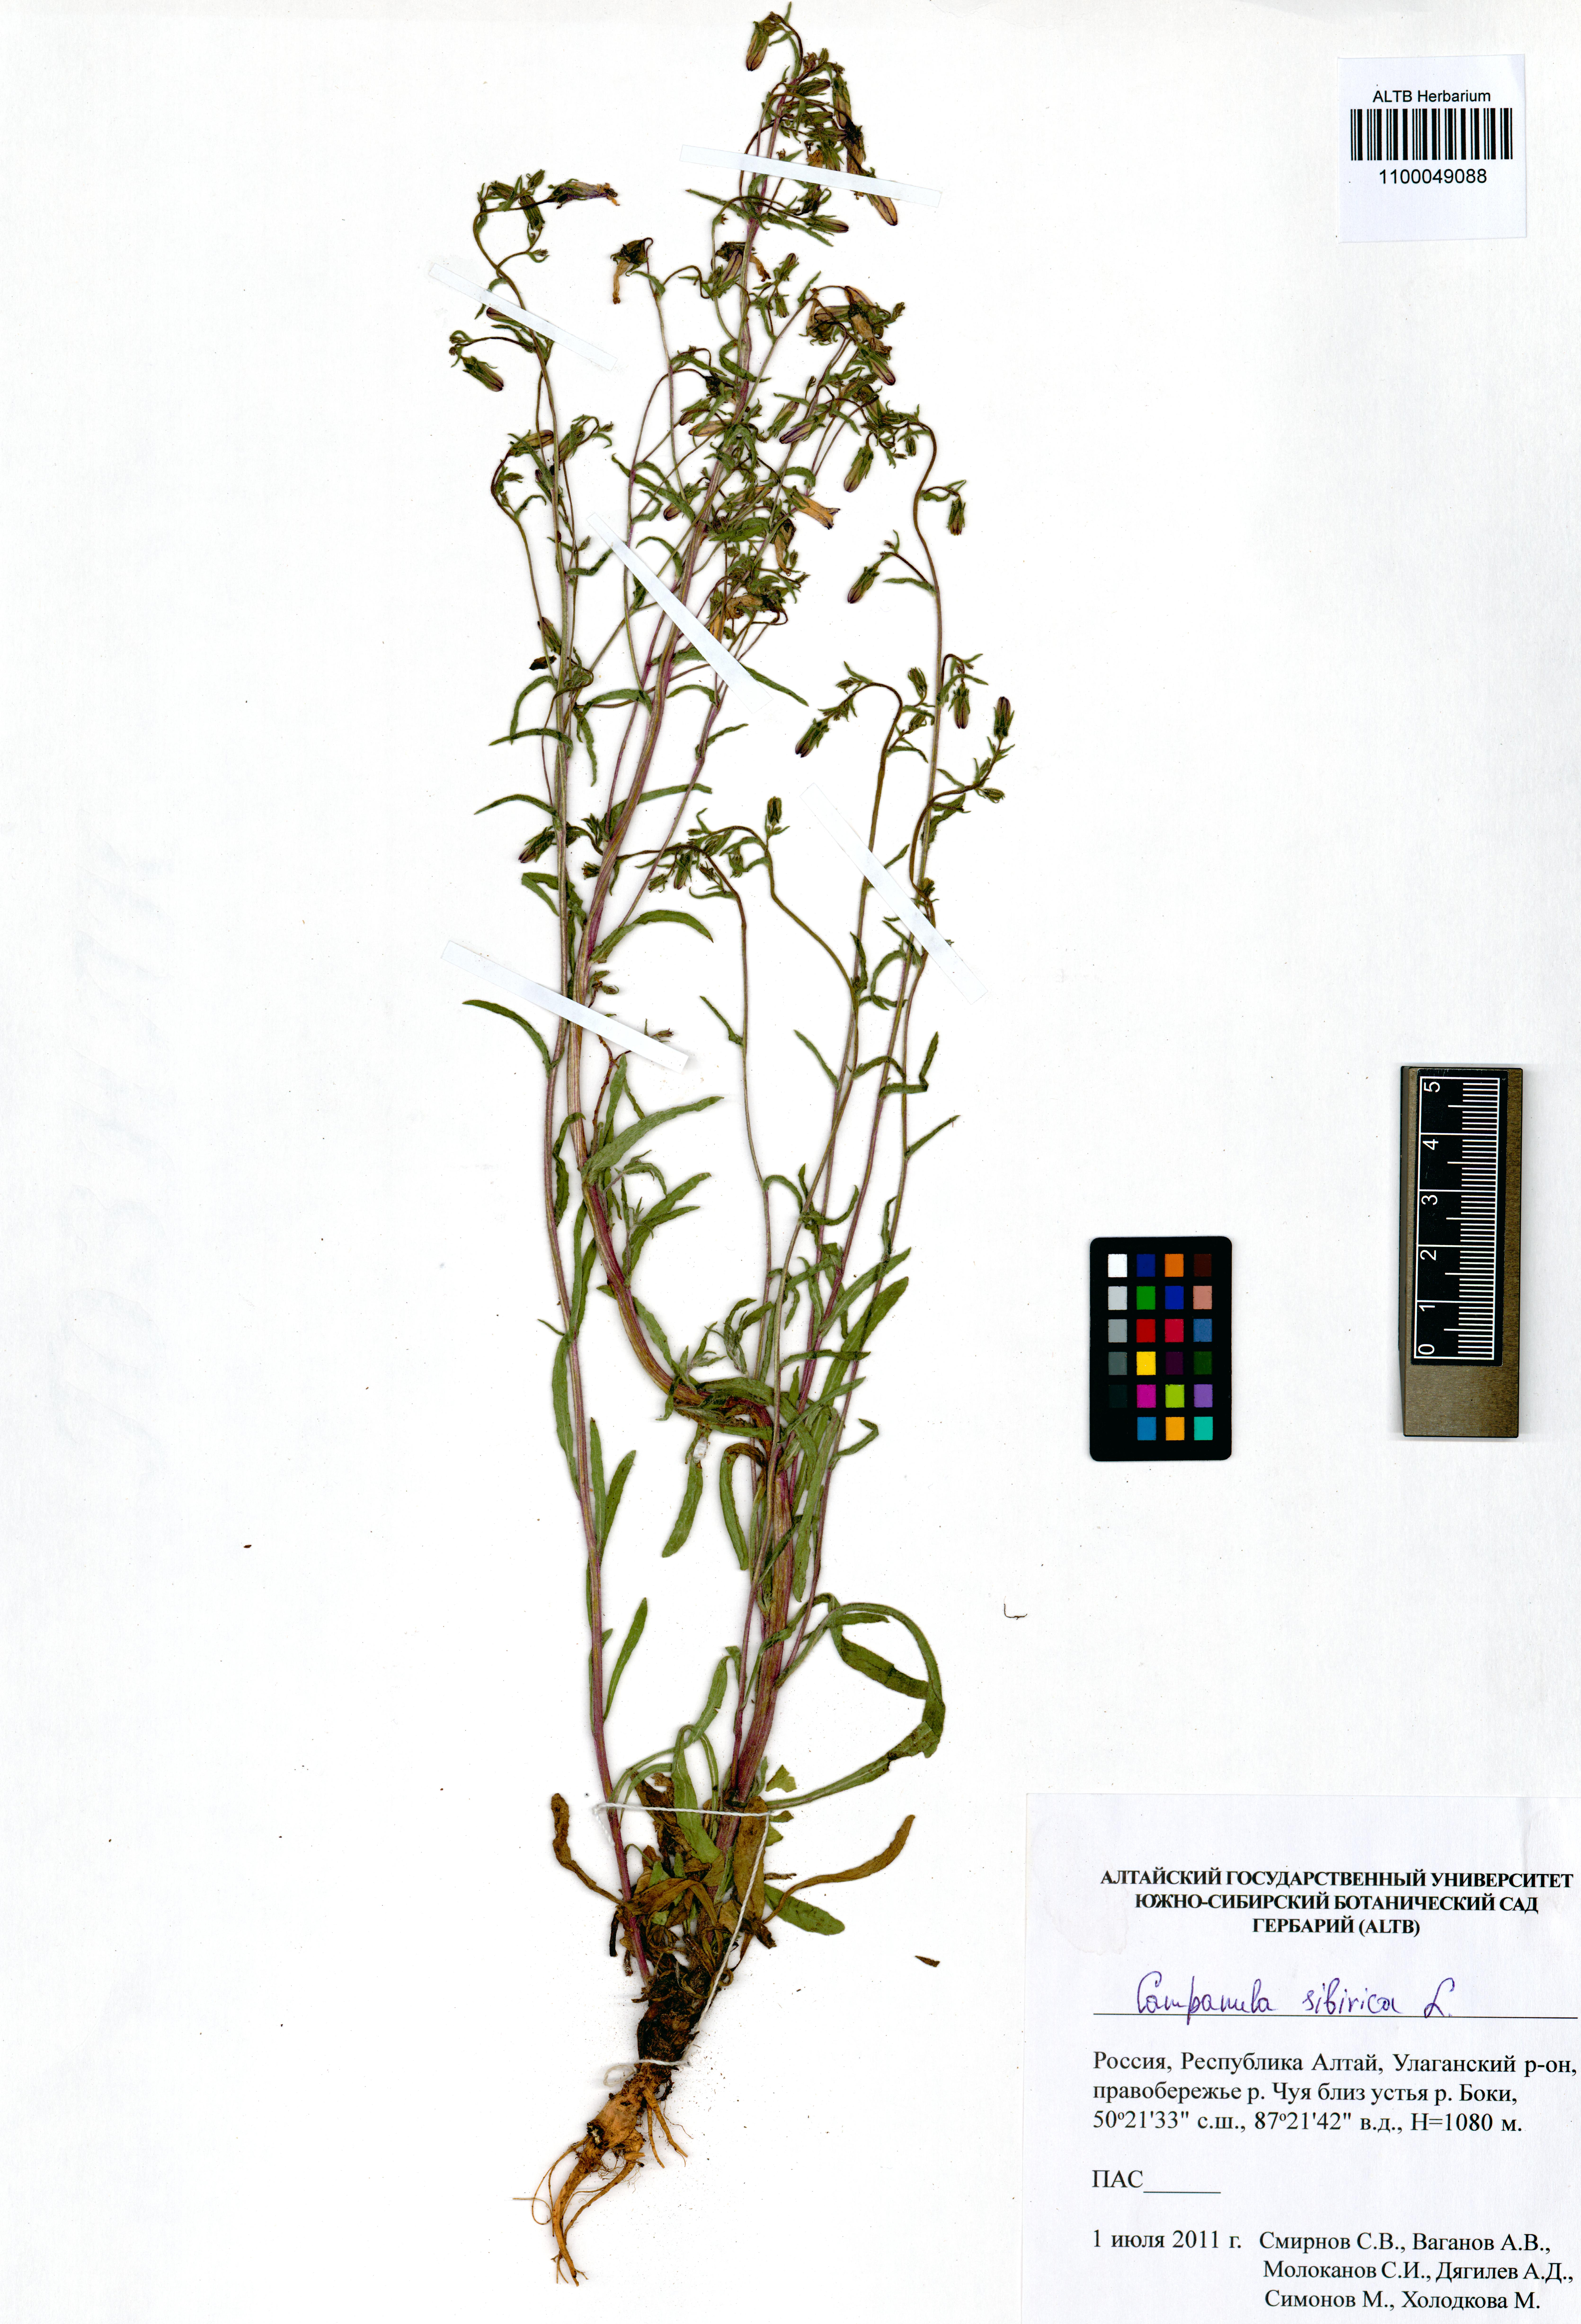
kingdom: Plantae
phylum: Tracheophyta
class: Magnoliopsida
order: Asterales
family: Campanulaceae
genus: Campanula
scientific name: Campanula sibirica
